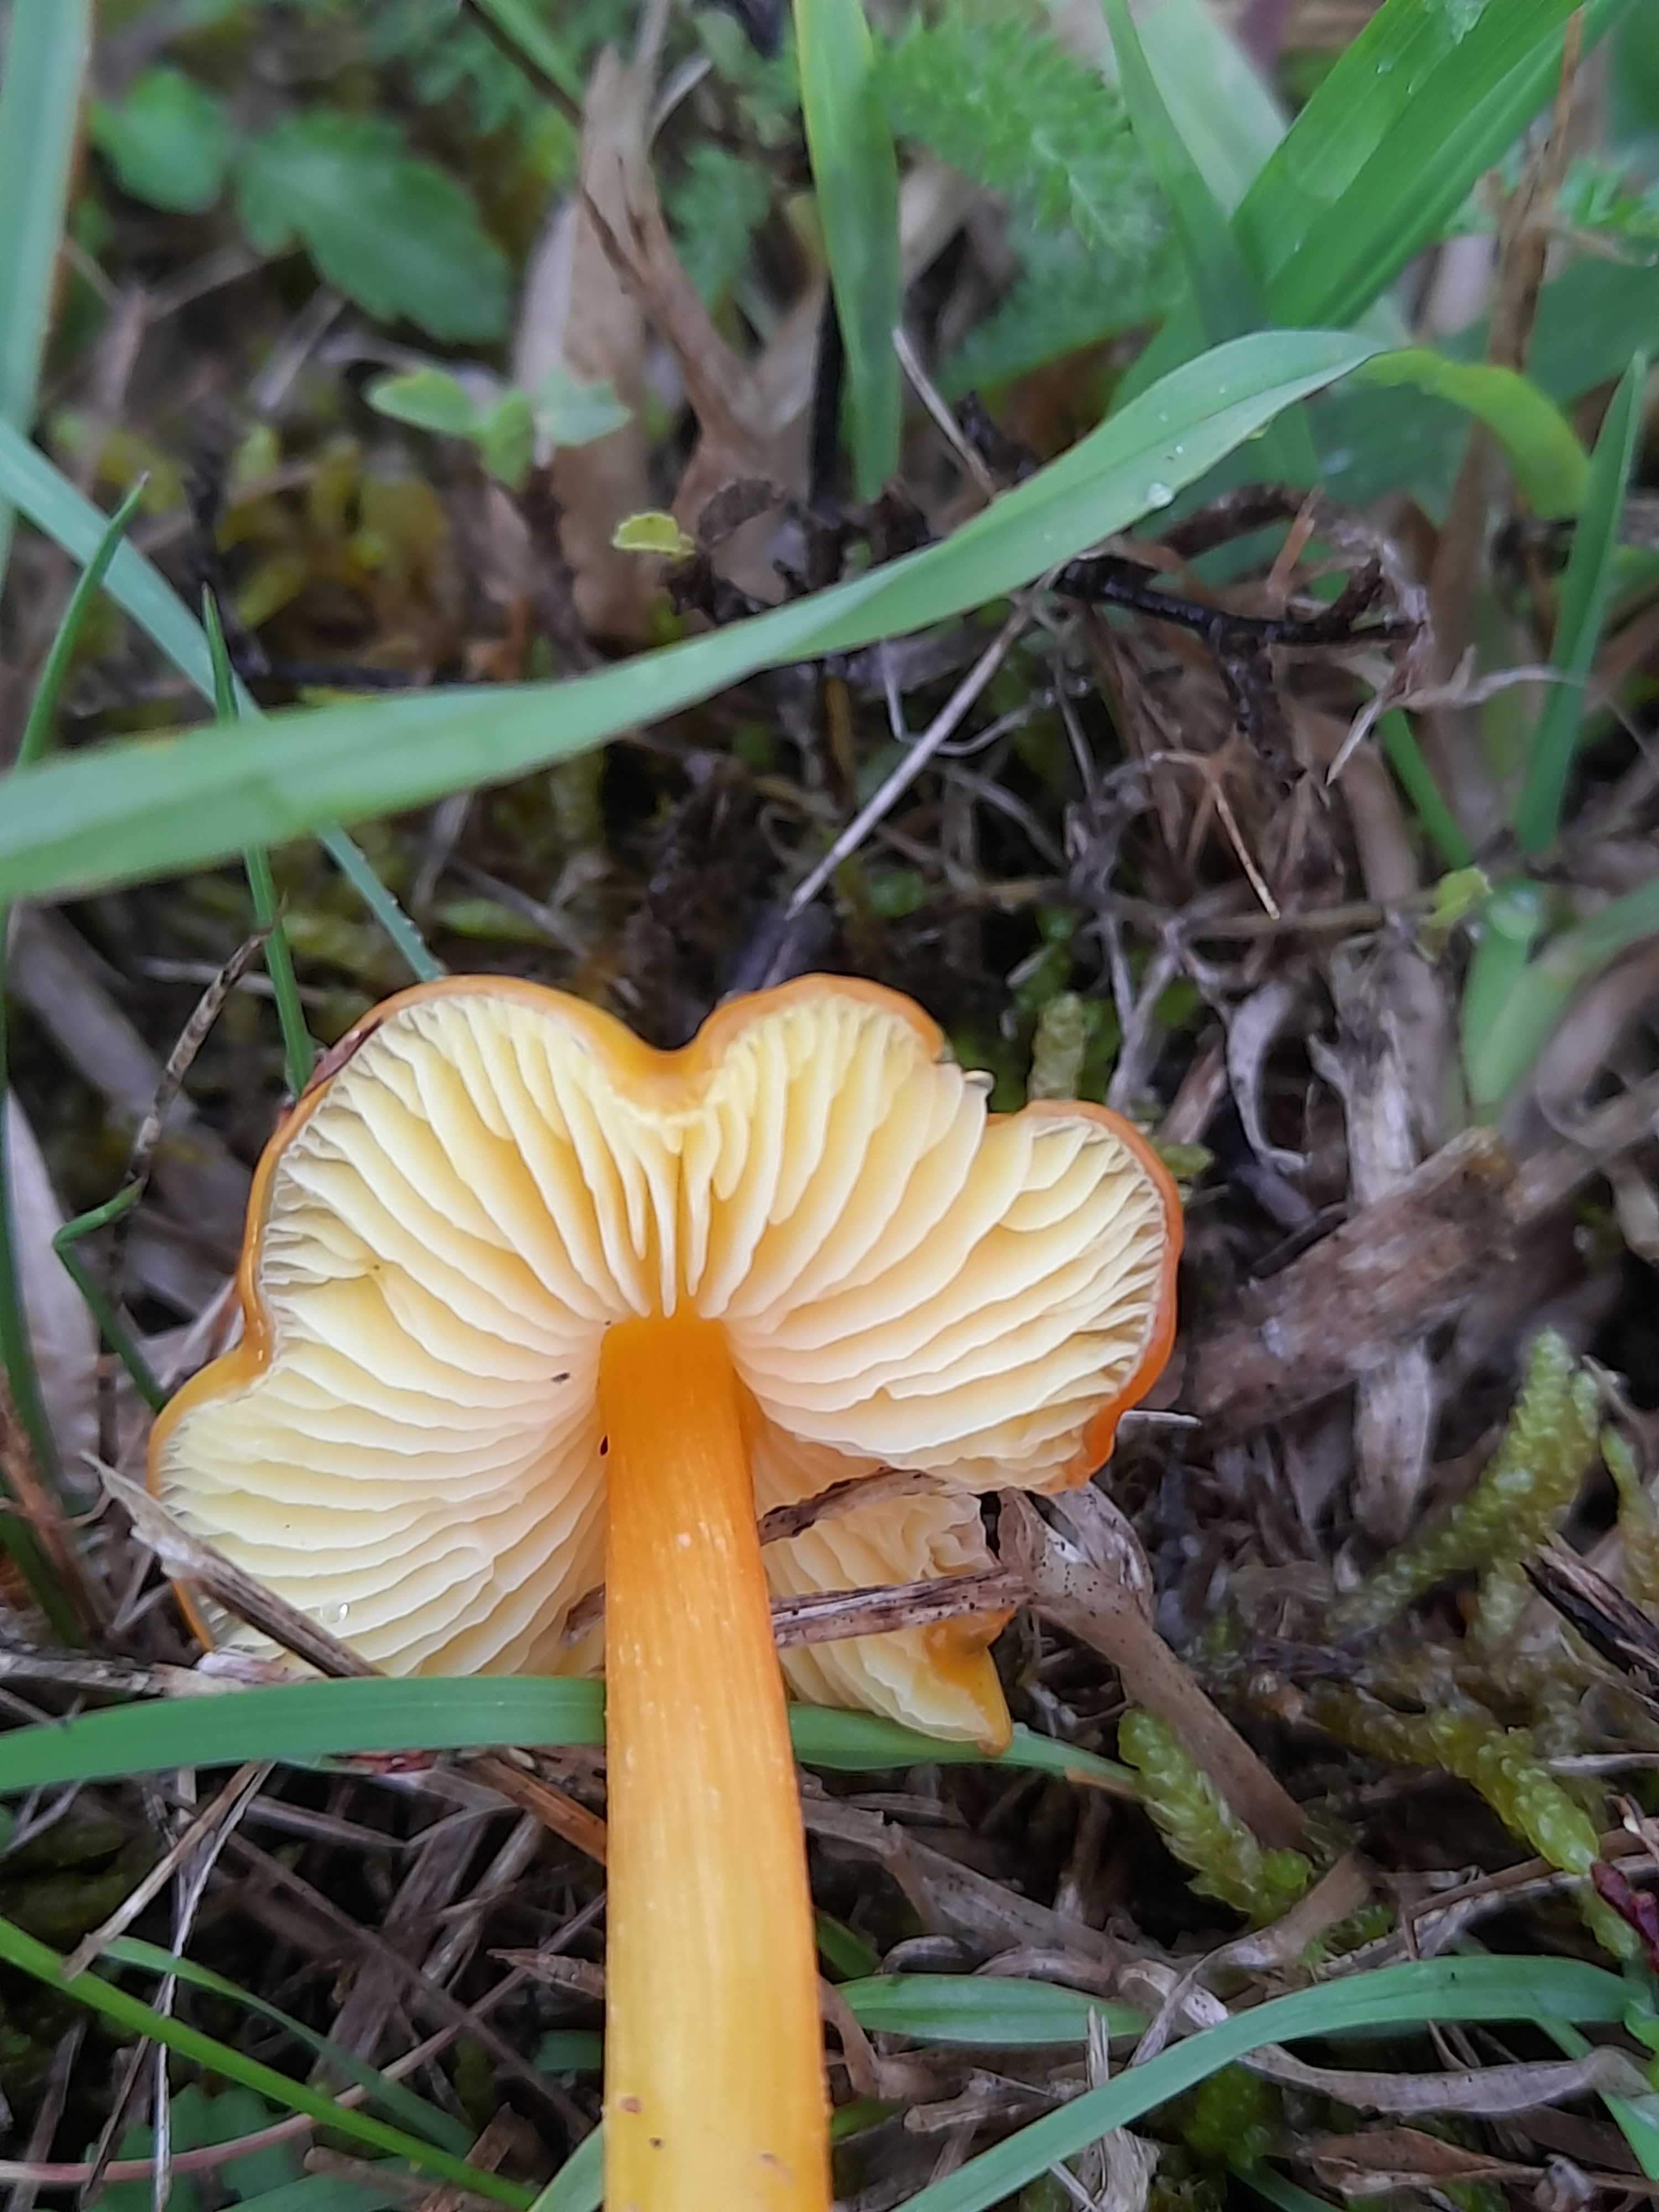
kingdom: Fungi
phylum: Basidiomycota
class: Agaricomycetes
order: Agaricales
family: Hygrophoraceae
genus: Hygrocybe
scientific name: Hygrocybe
